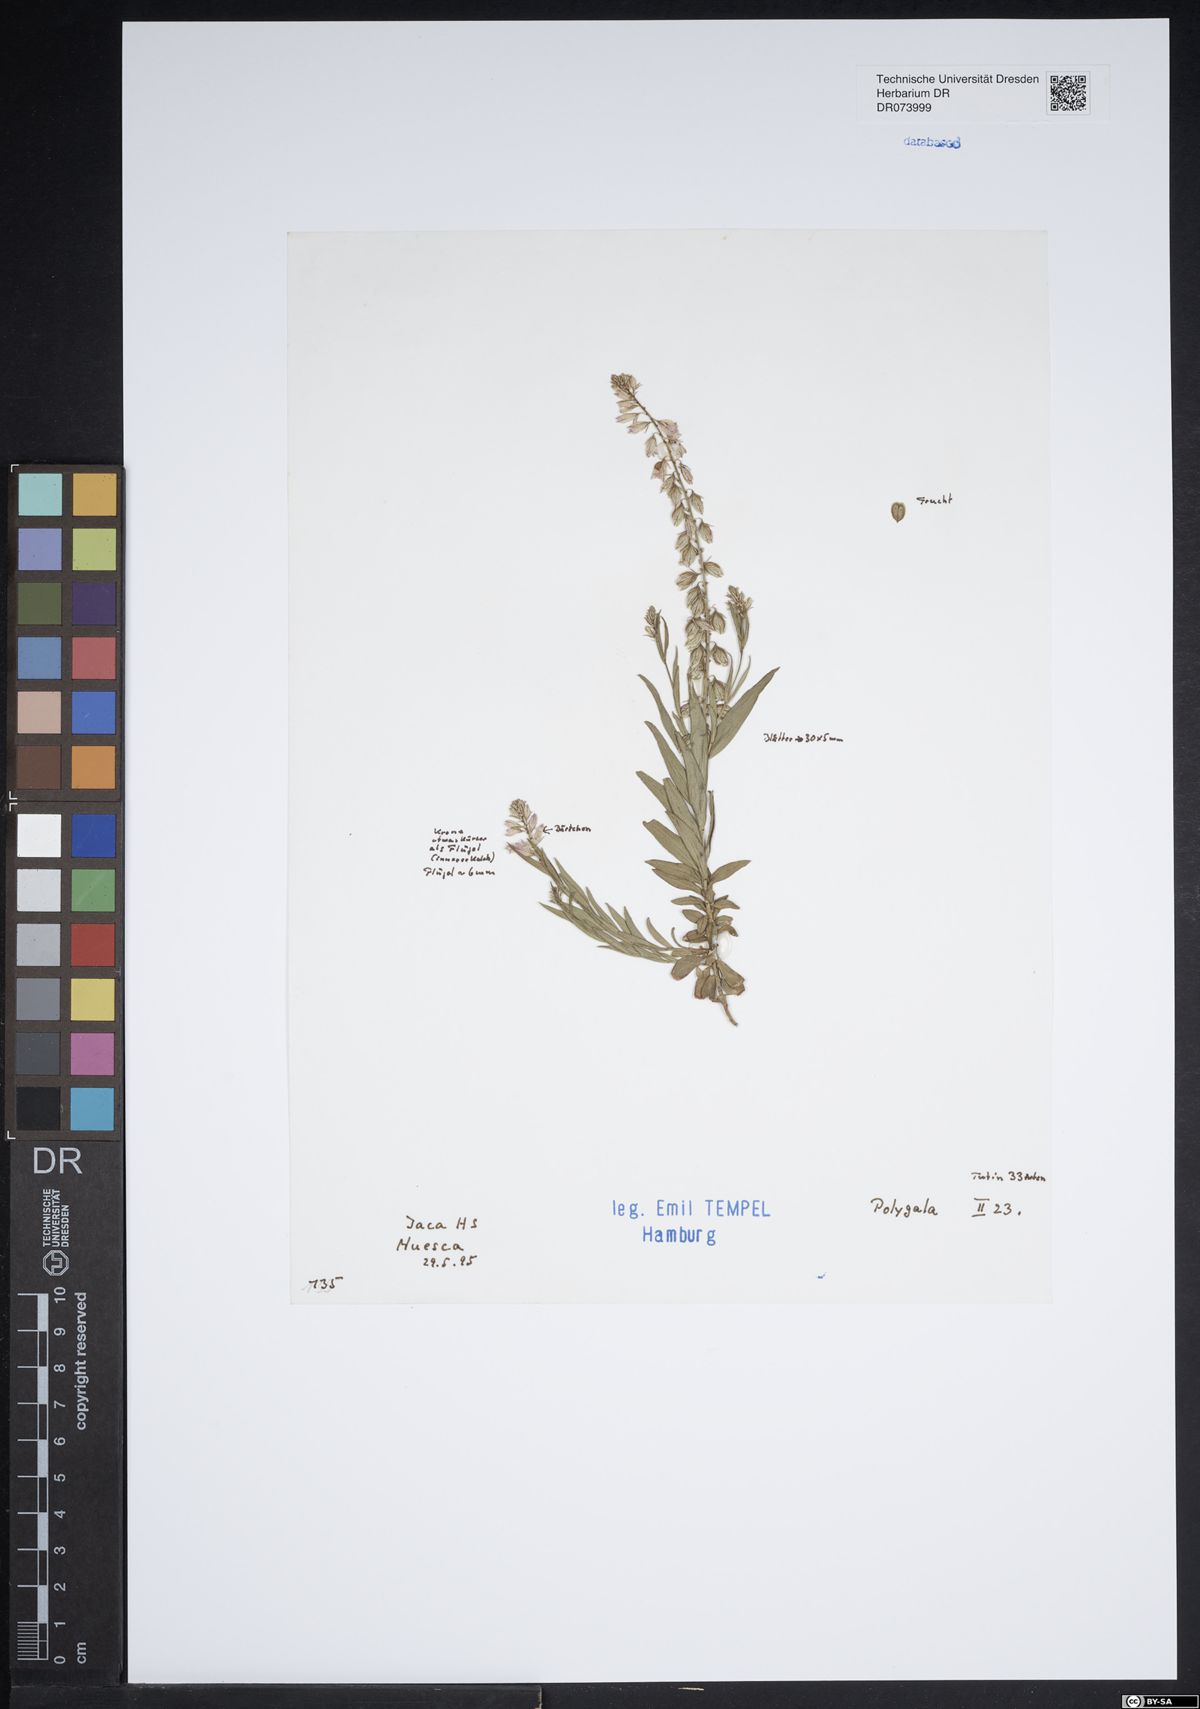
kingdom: Plantae
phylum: Tracheophyta
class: Magnoliopsida
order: Fabales
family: Polygalaceae
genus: Polygala
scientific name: Polygala
